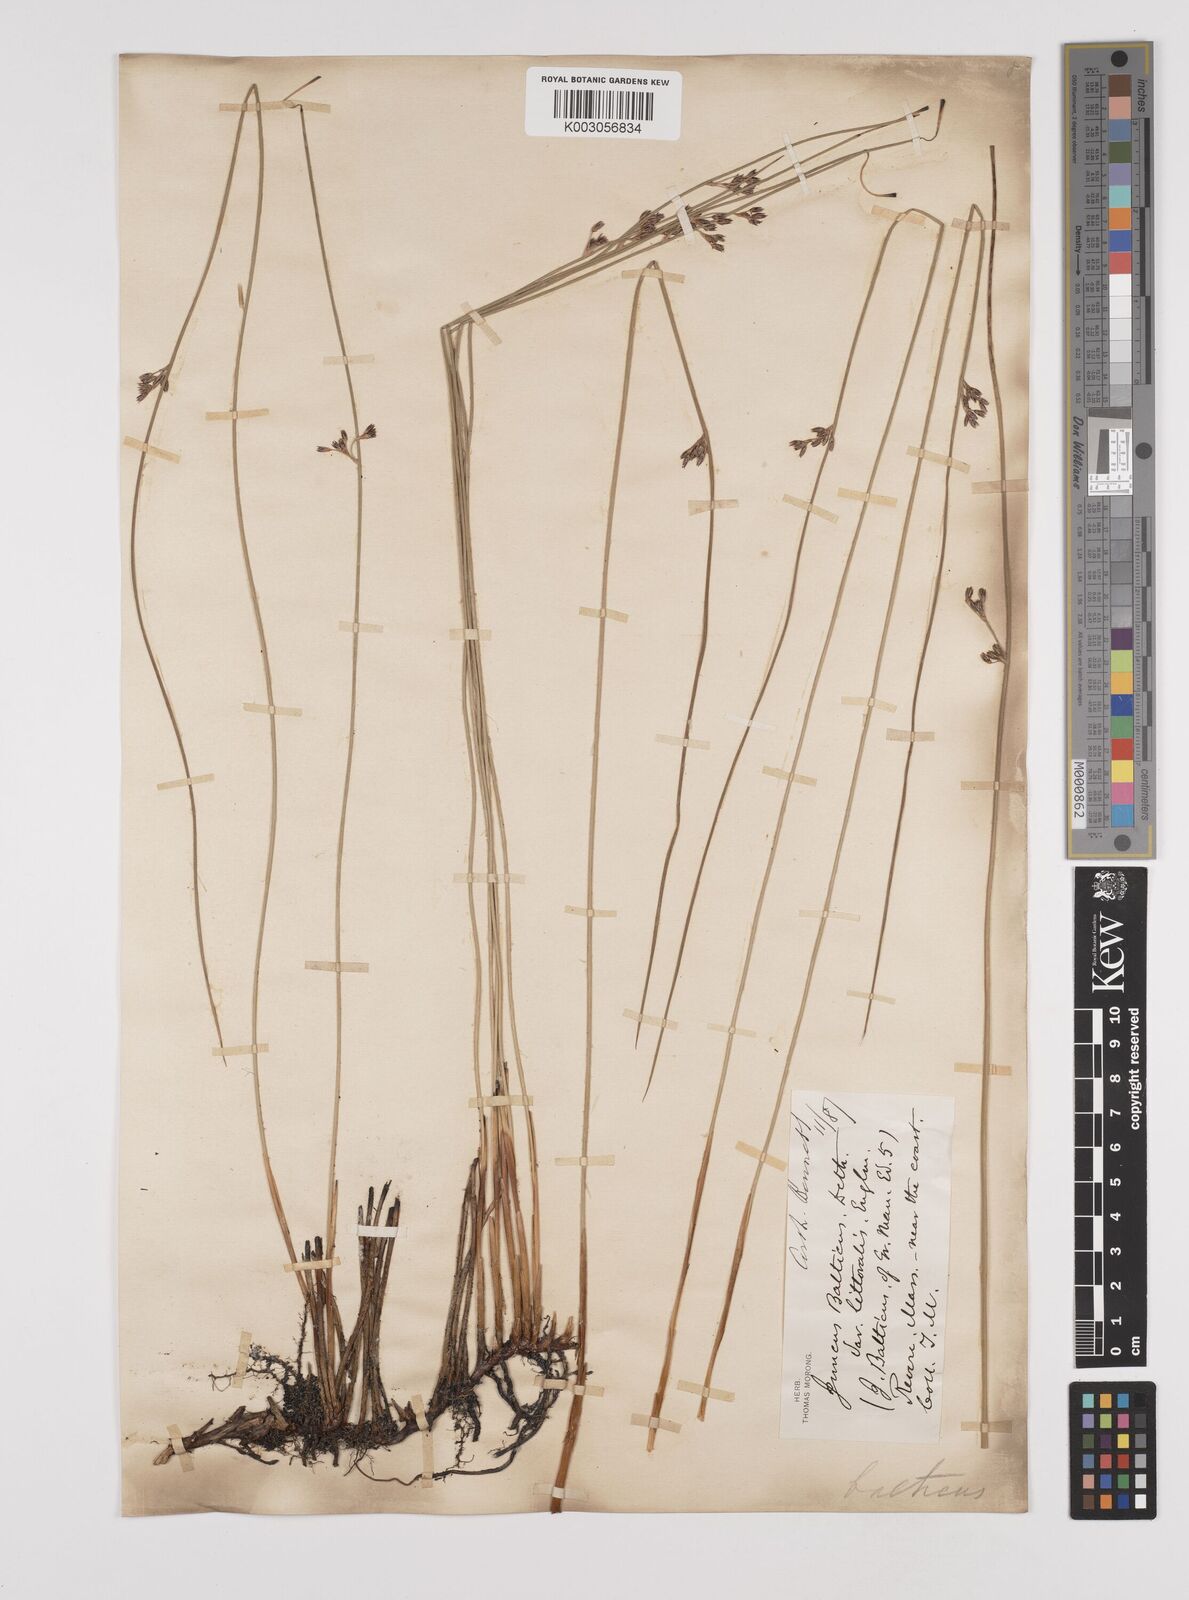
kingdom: Plantae
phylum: Tracheophyta
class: Liliopsida
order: Poales
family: Juncaceae
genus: Juncus
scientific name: Juncus balticus
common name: Baltic rush
